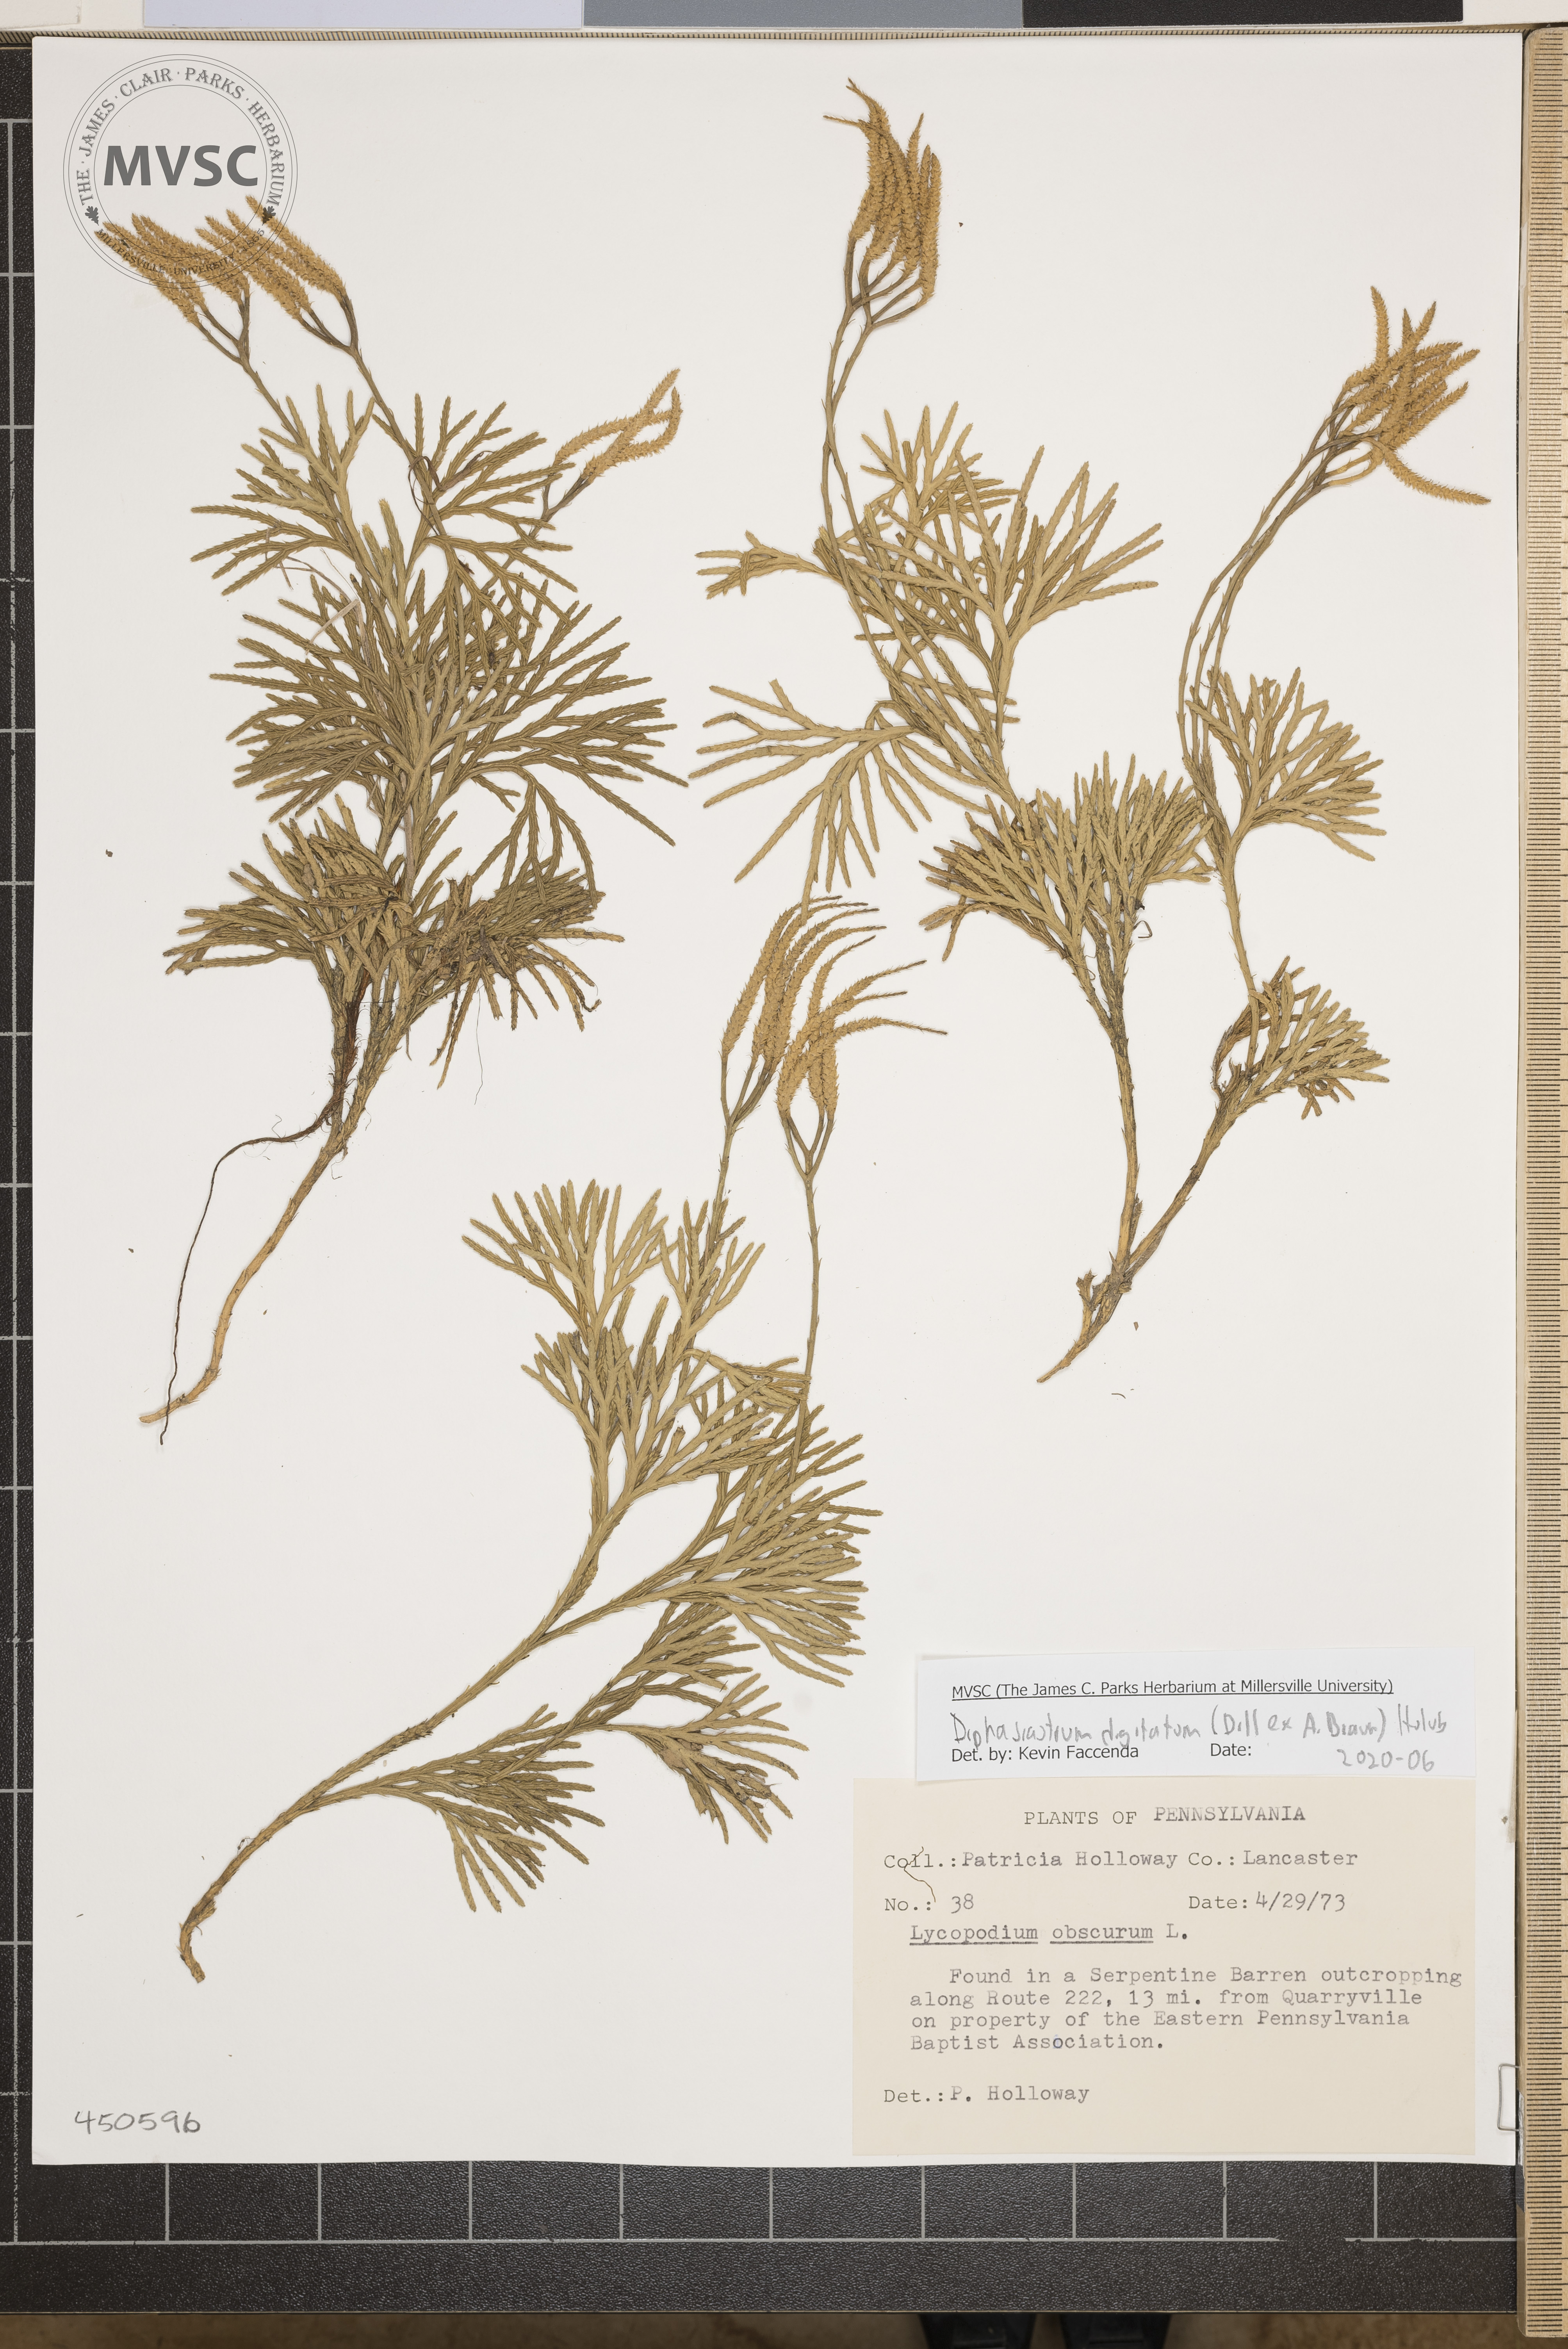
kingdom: Plantae
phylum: Tracheophyta
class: Lycopodiopsida
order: Lycopodiales
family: Lycopodiaceae
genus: Diphasiastrum
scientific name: Diphasiastrum digitatum
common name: Southern running-pine
